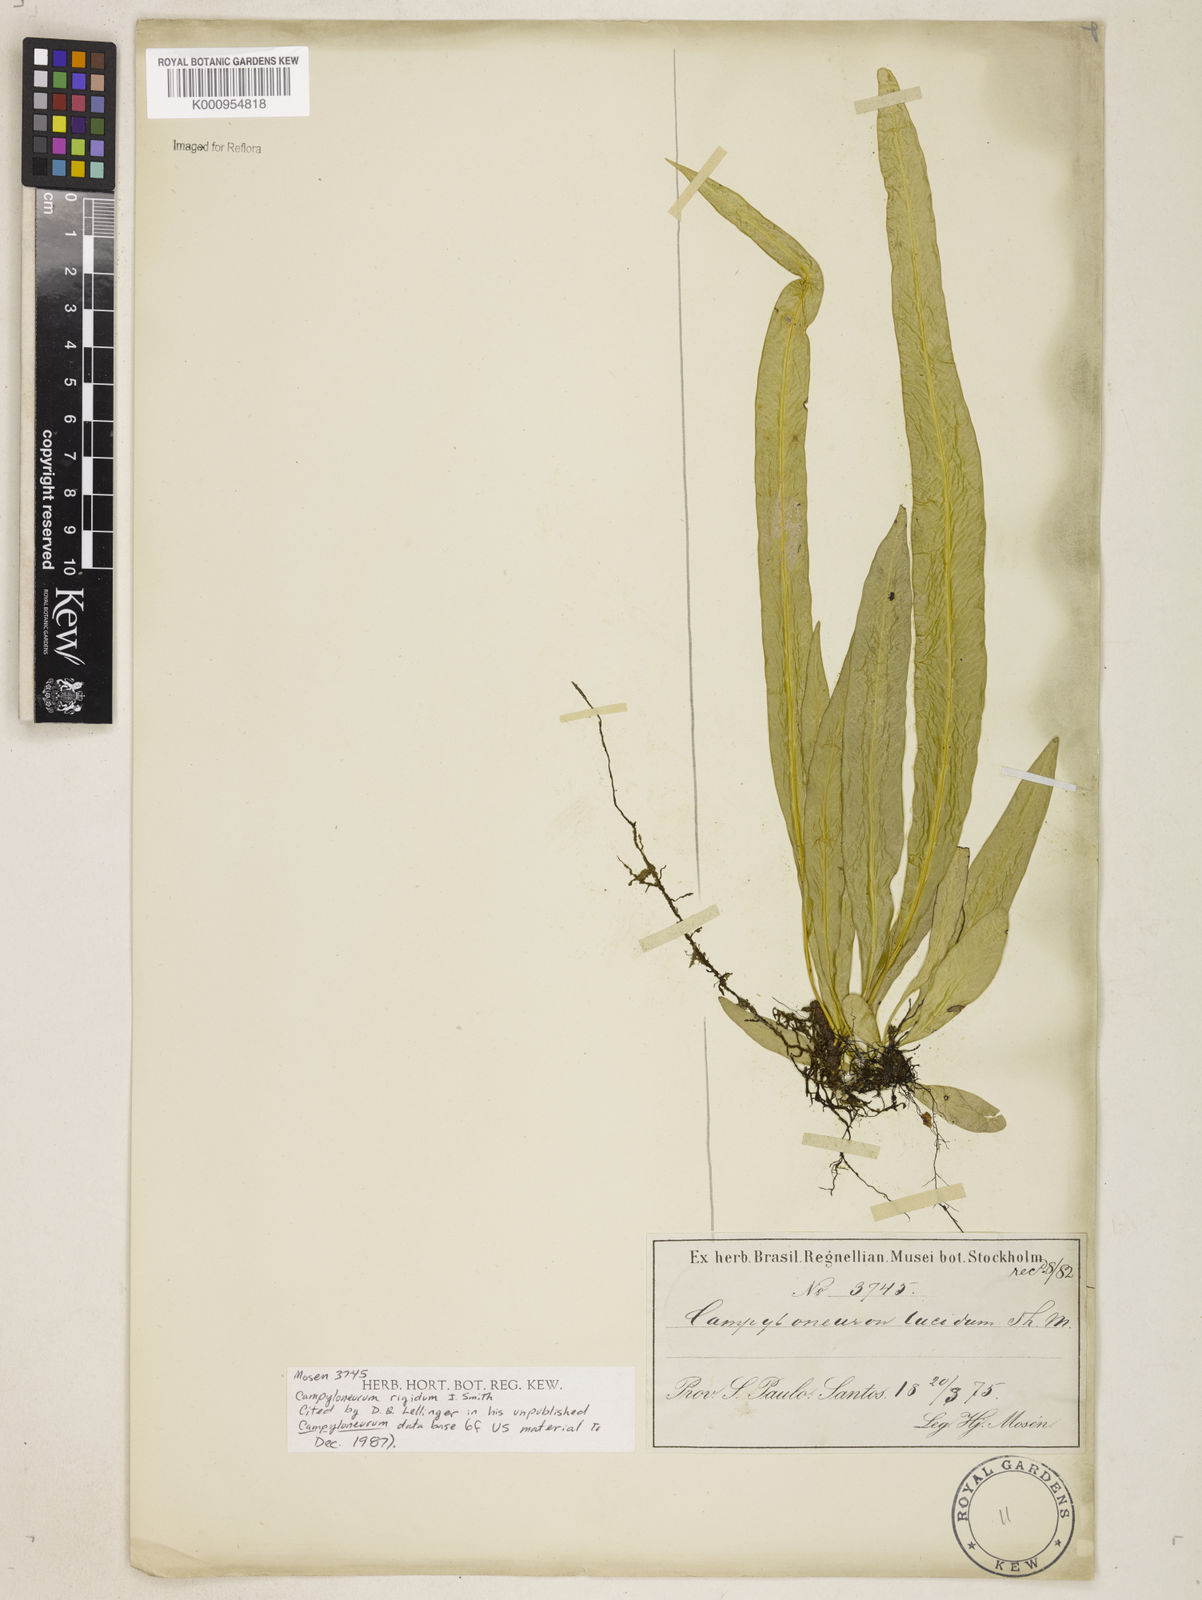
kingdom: Plantae
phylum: Tracheophyta
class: Polypodiopsida
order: Polypodiales
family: Polypodiaceae
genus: Campyloneurum
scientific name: Campyloneurum rigidum
